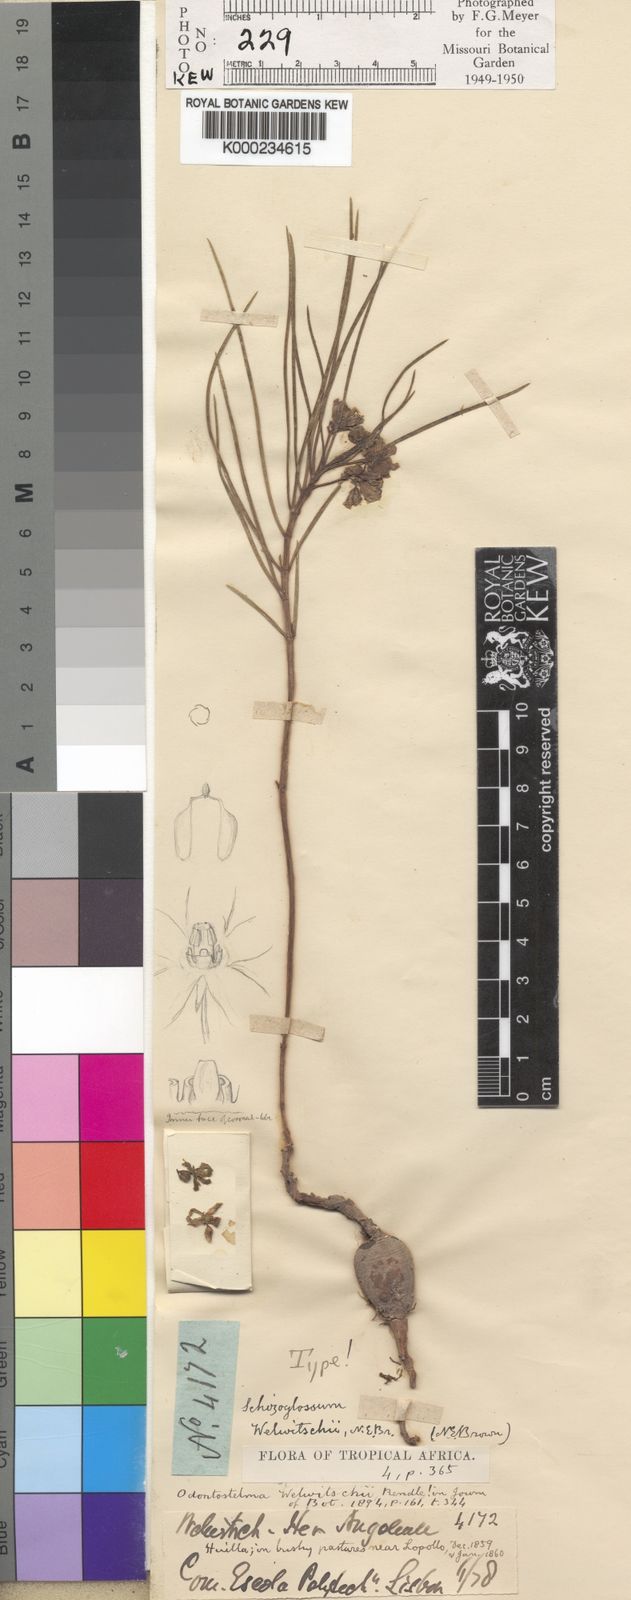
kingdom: Plantae
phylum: Tracheophyta
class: Magnoliopsida
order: Gentianales
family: Apocynaceae
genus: Asclepias
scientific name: Asclepias minor
